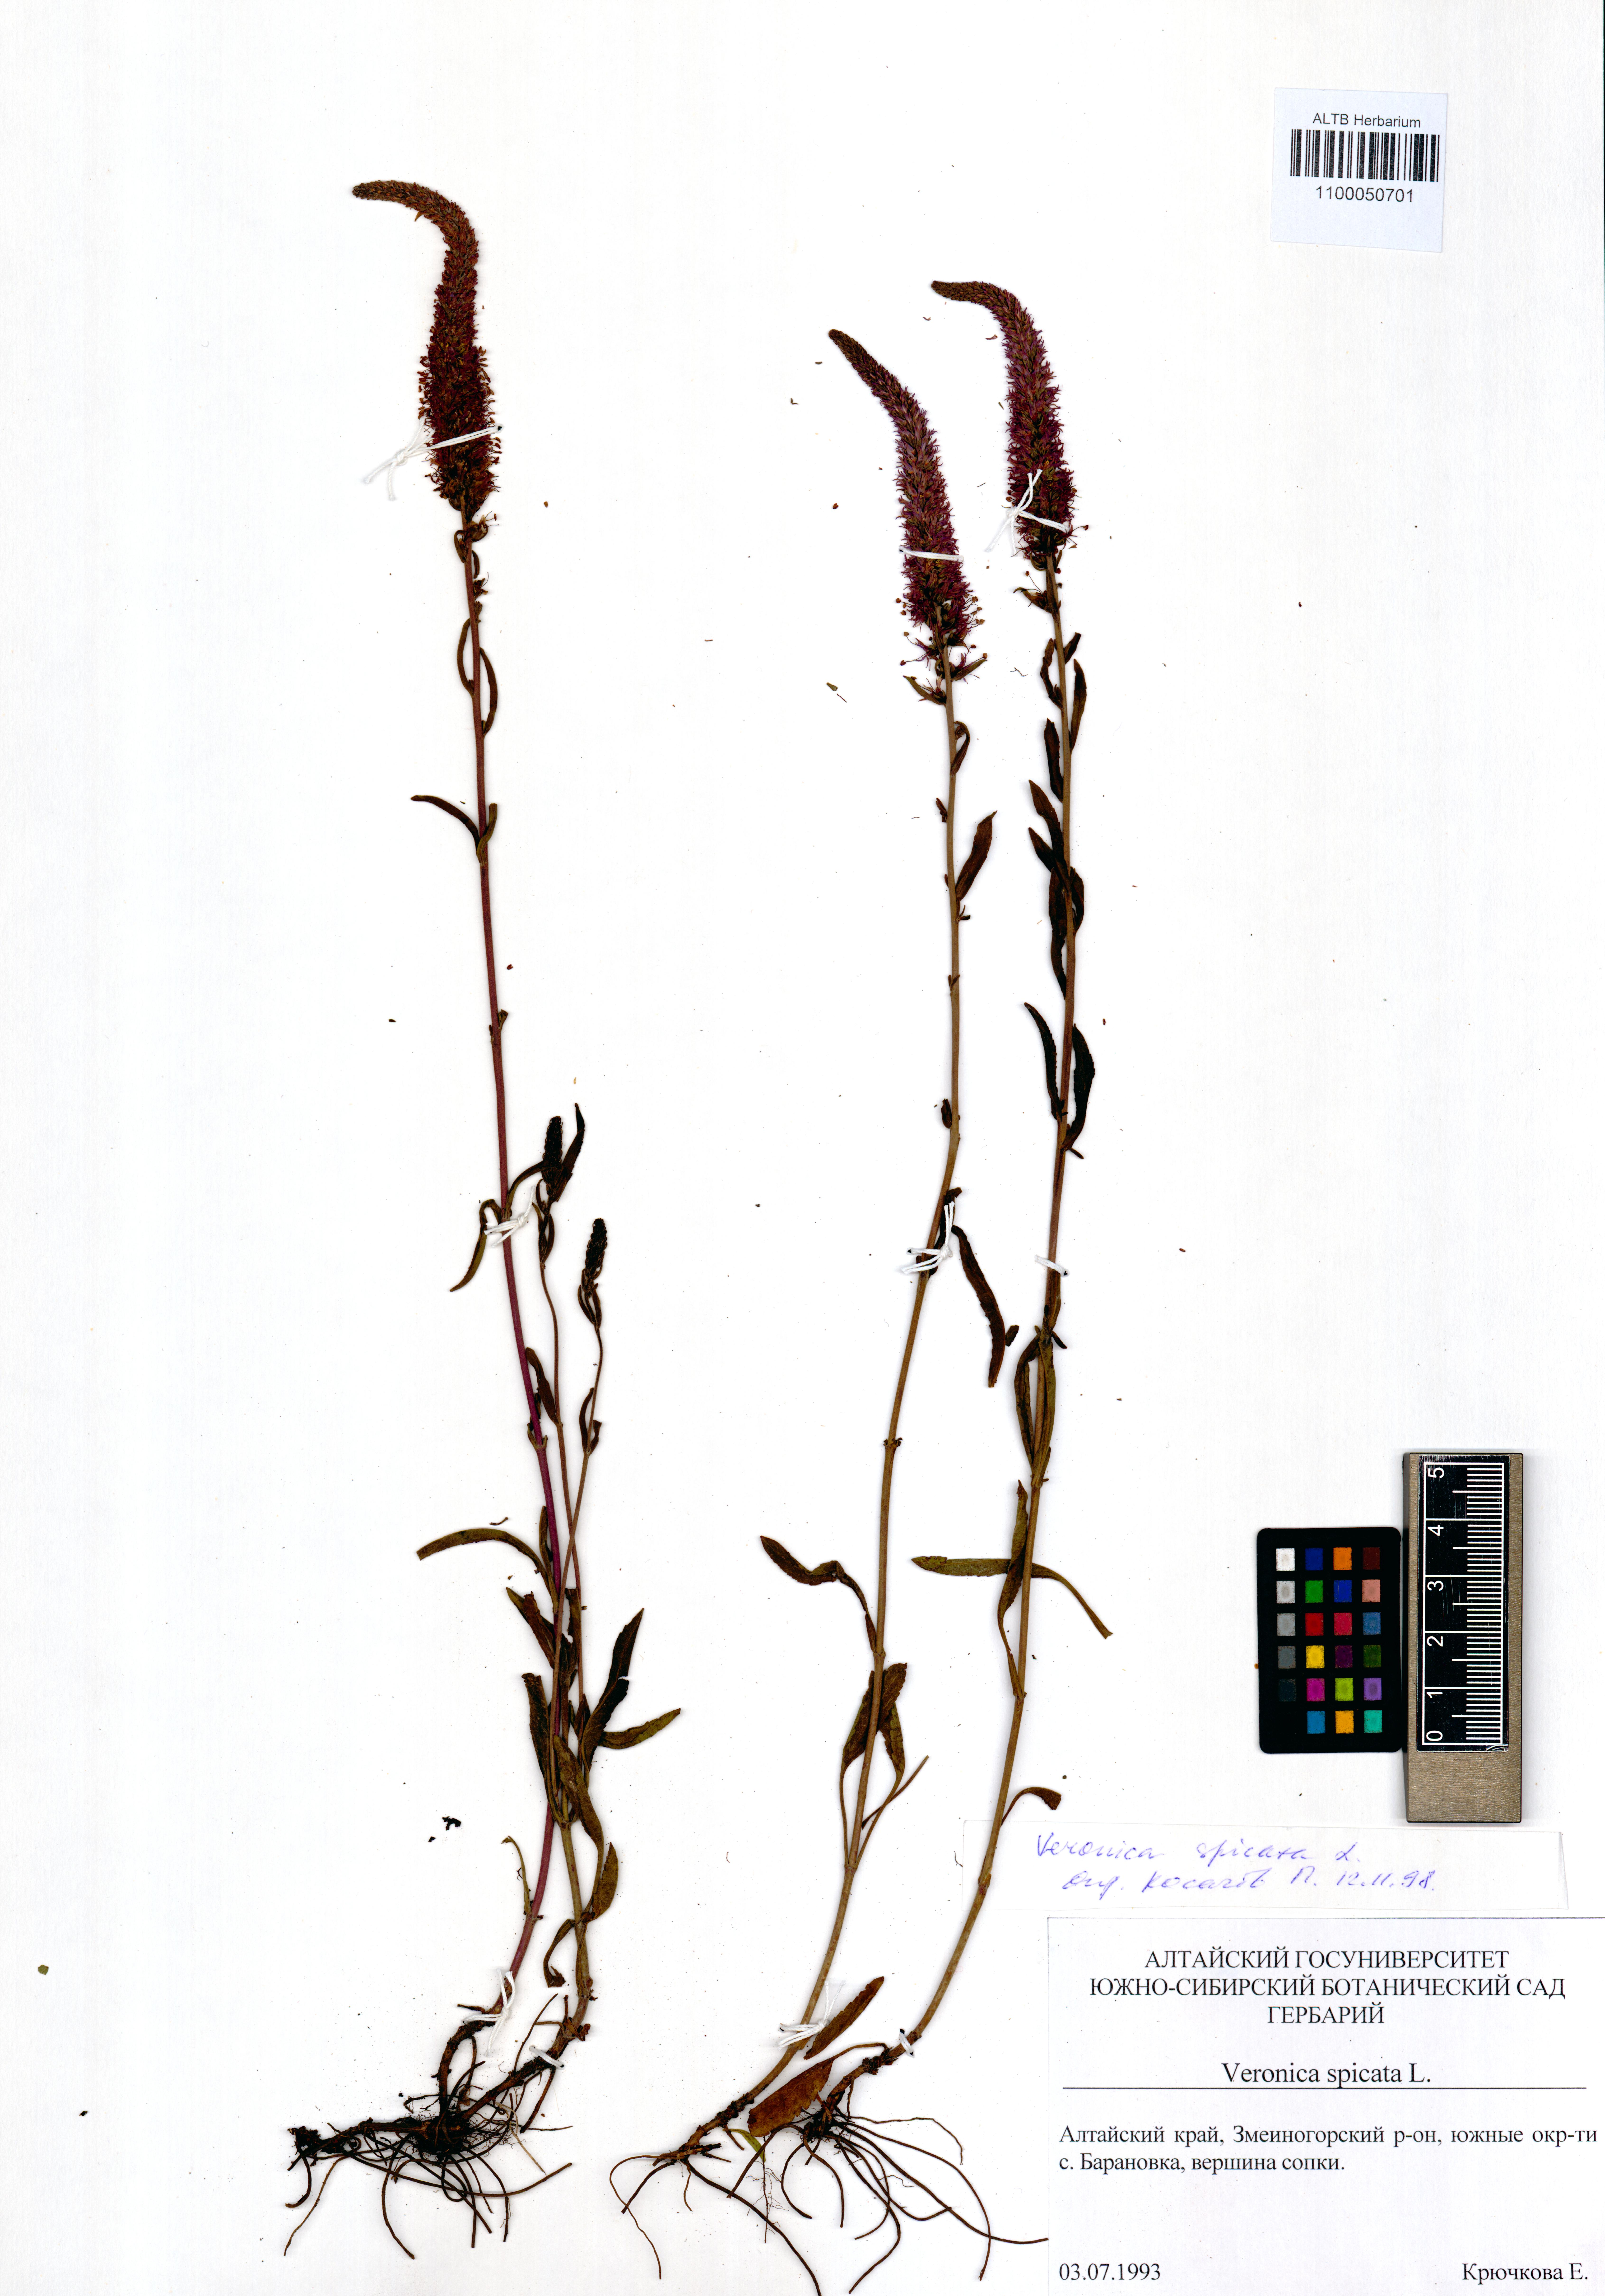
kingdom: Plantae
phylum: Tracheophyta
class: Magnoliopsida
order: Lamiales
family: Plantaginaceae
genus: Veronica
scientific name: Veronica spicata
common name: Spiked speedwell
